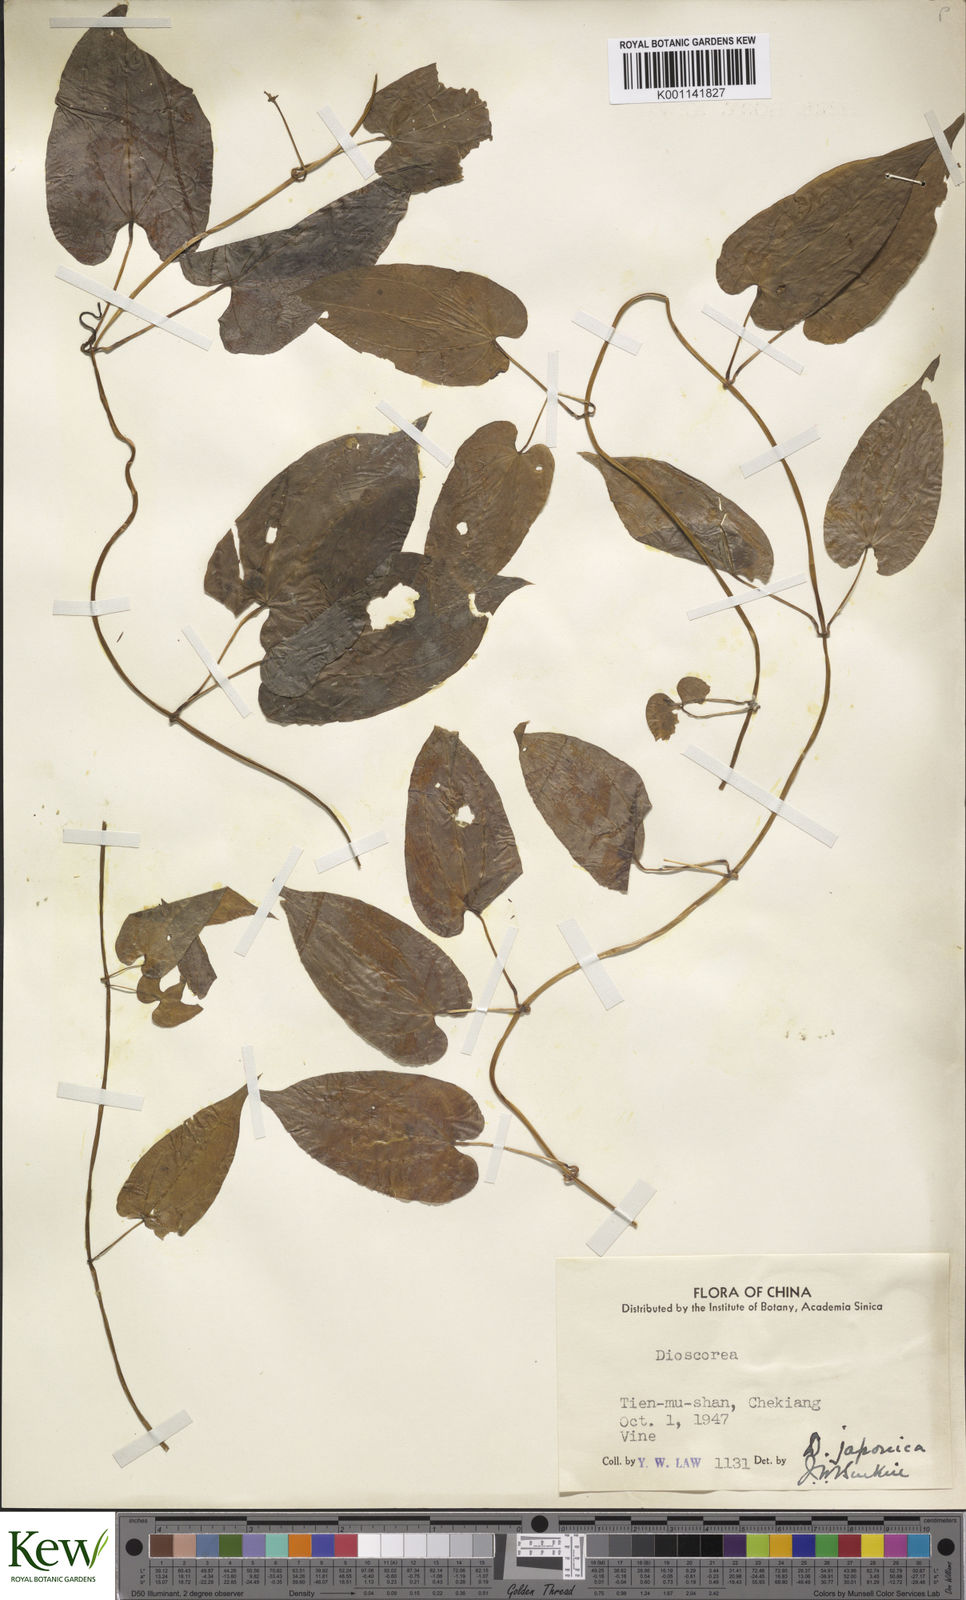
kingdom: Plantae
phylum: Tracheophyta
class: Liliopsida
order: Dioscoreales
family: Dioscoreaceae
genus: Dioscorea
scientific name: Dioscorea japonica
